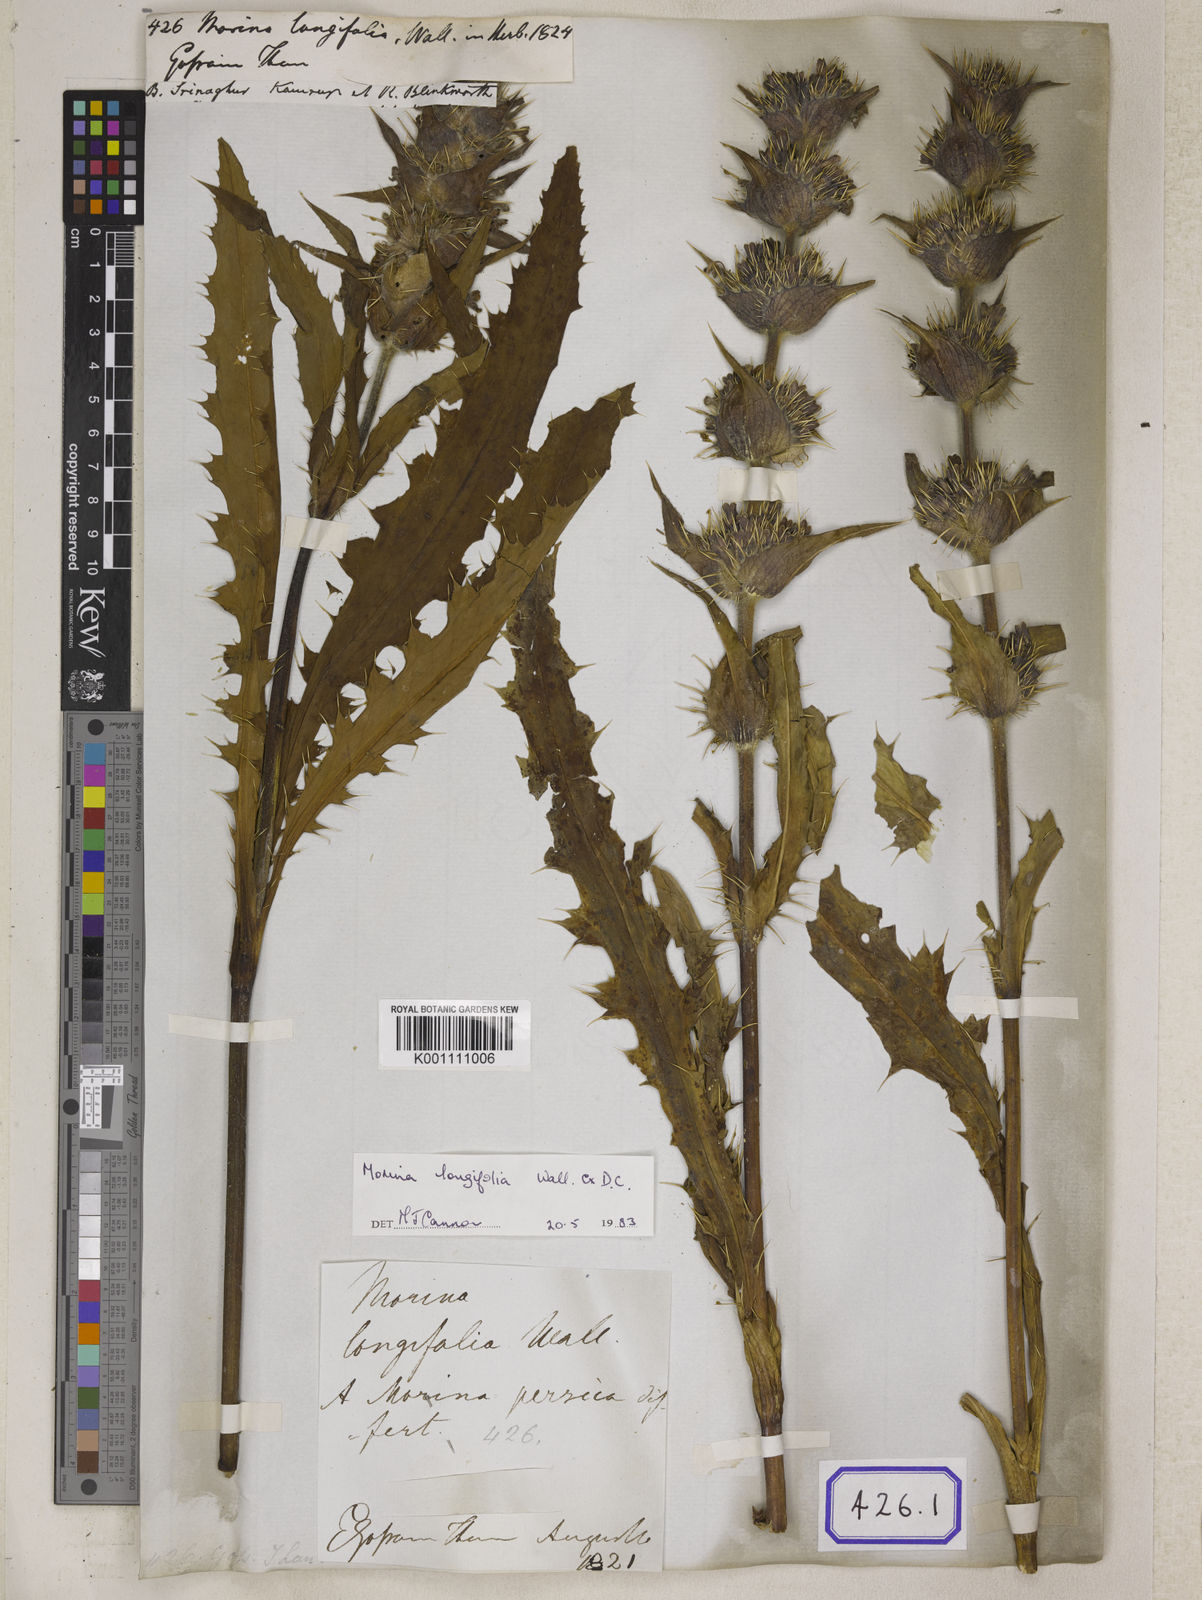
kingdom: Plantae
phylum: Tracheophyta
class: Magnoliopsida
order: Dipsacales
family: Caprifoliaceae
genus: Morina
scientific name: Morina
